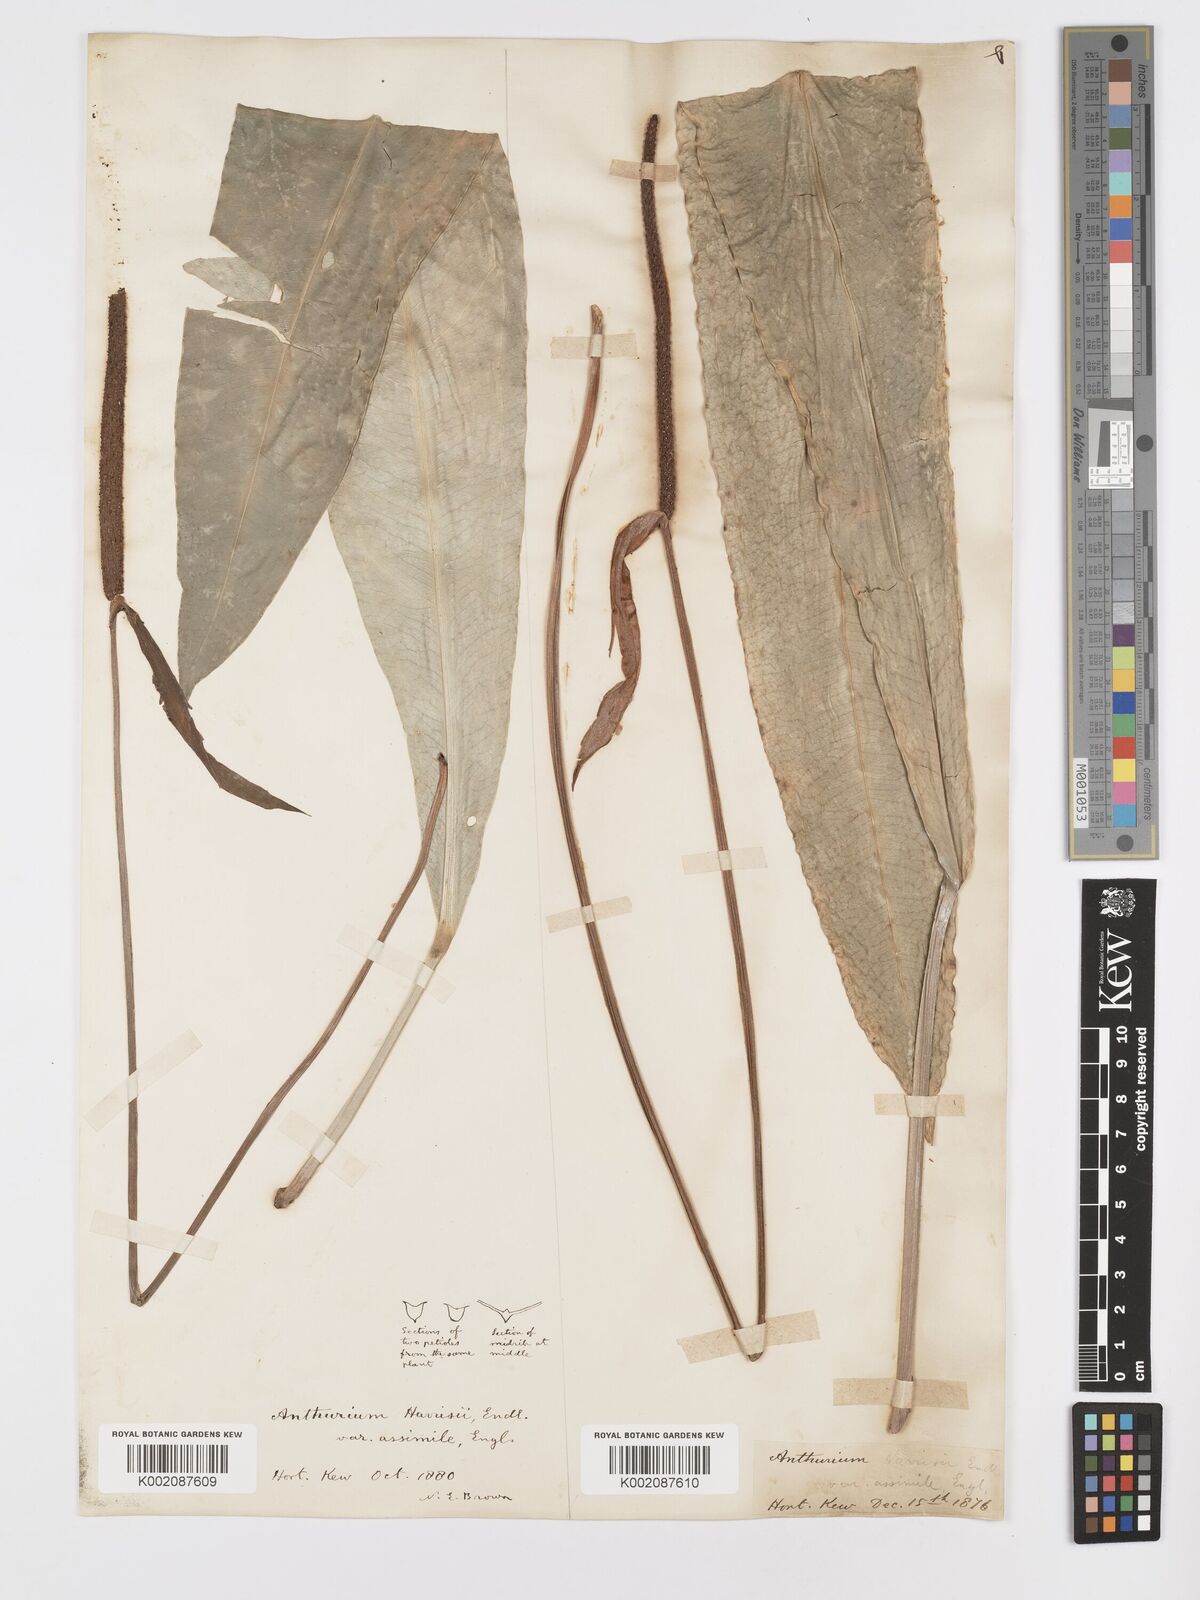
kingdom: Plantae
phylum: Tracheophyta
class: Liliopsida
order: Alismatales
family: Araceae
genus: Anthurium
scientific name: Anthurium harrisii
